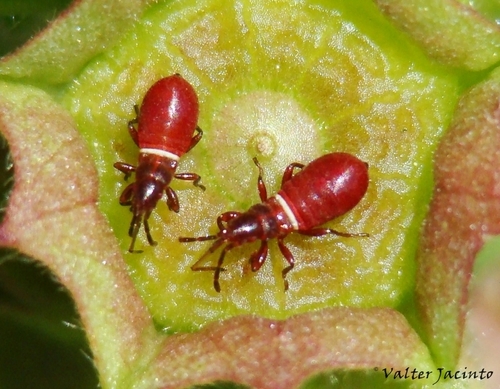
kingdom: Animalia
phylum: Arthropoda
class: Insecta
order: Hemiptera
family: Oxycarenidae
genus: Oxycarenus
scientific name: Oxycarenus lavaterae
